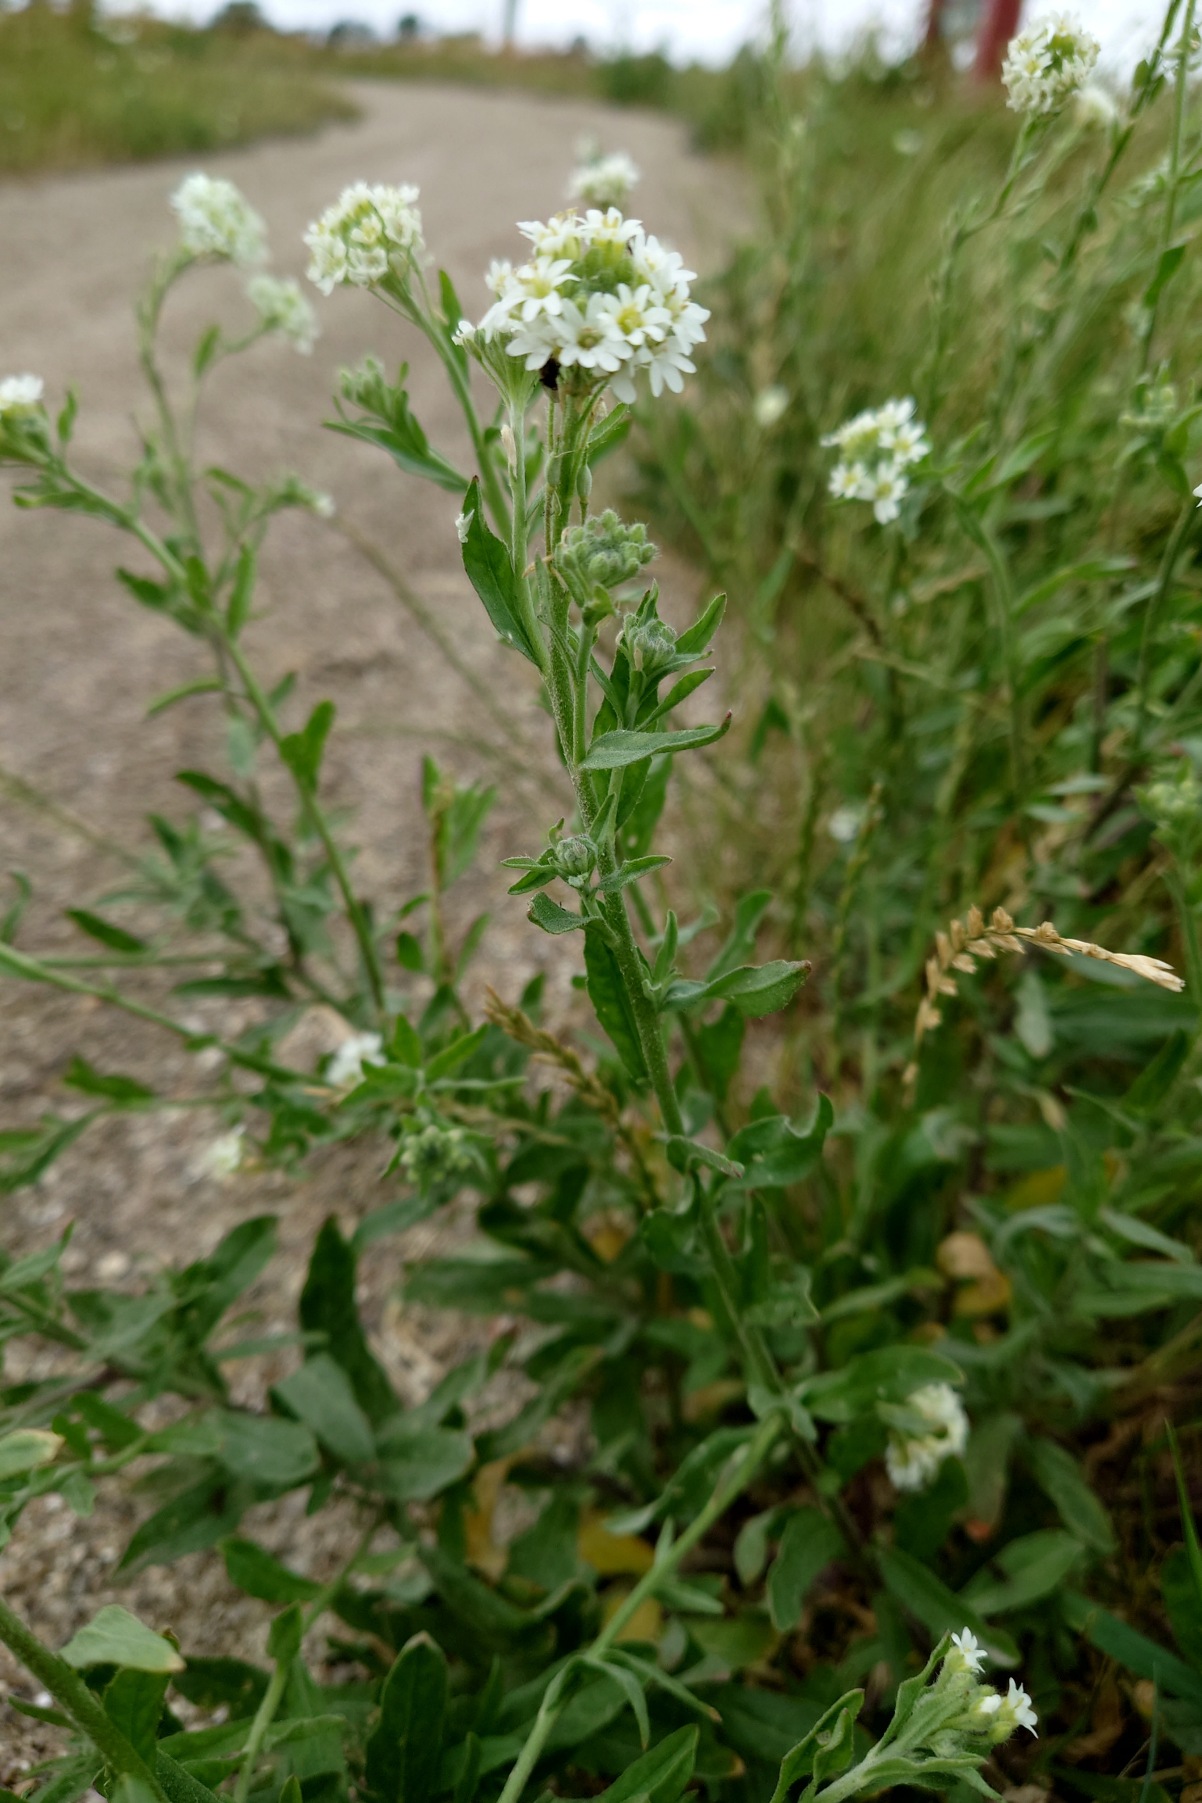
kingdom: Plantae
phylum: Tracheophyta
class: Magnoliopsida
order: Brassicales
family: Brassicaceae
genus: Berteroa
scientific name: Berteroa incana
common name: Kløvplade
